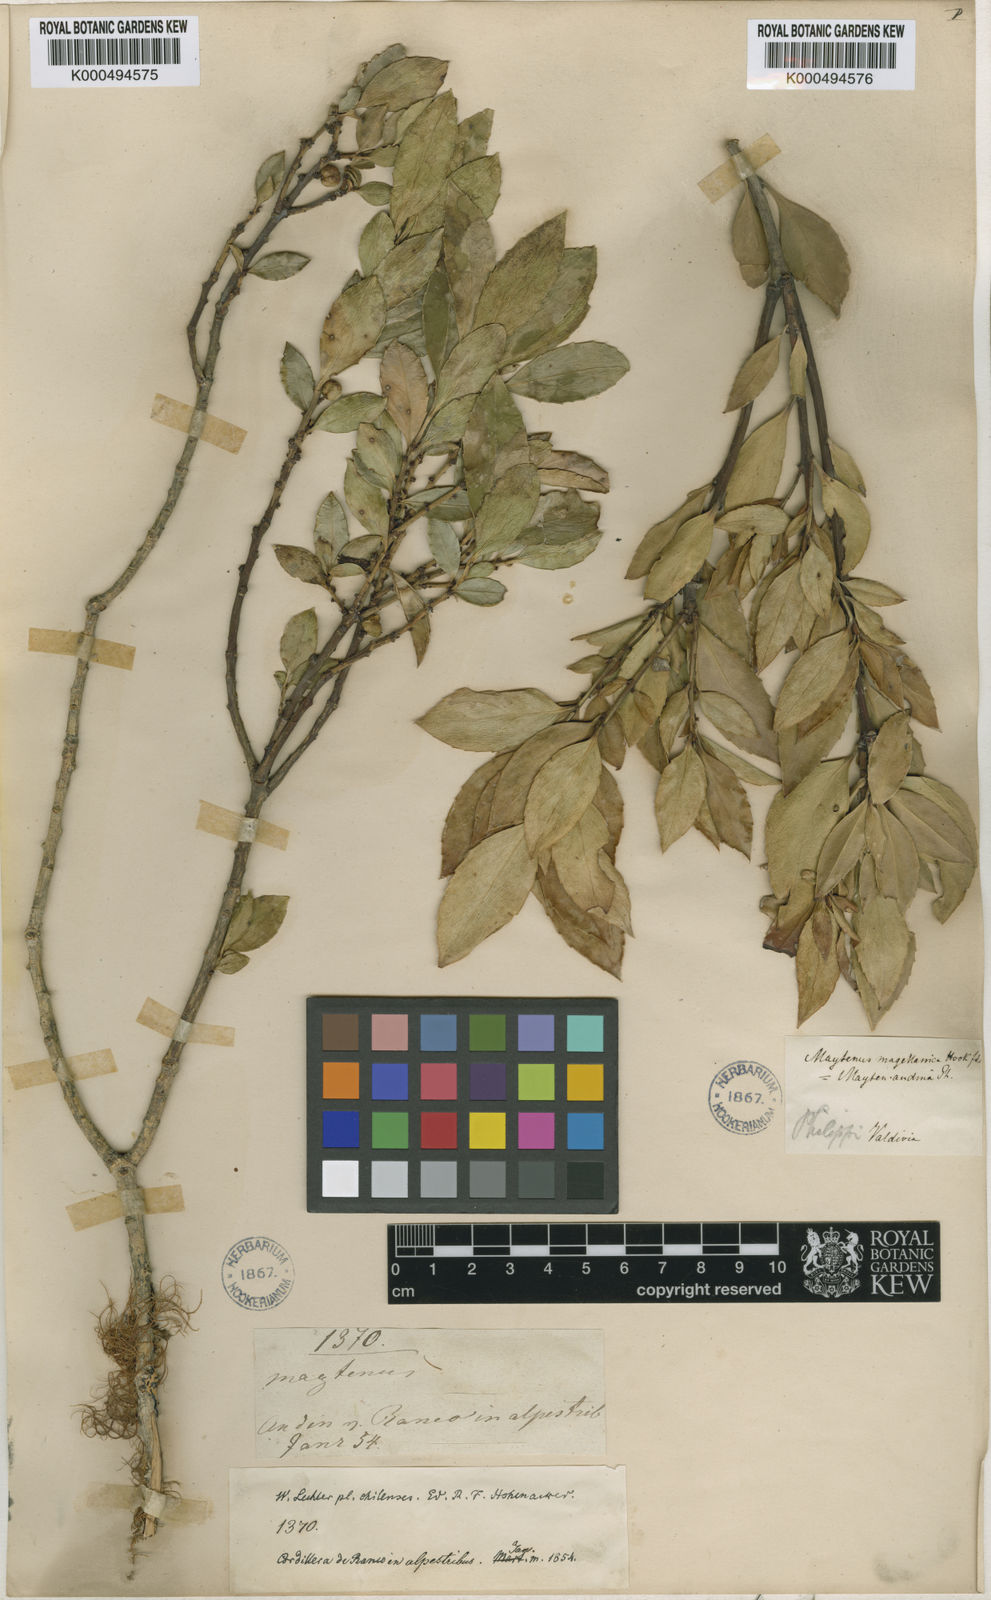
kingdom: Plantae
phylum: Tracheophyta
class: Magnoliopsida
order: Celastrales
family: Celastraceae
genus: Maytenus
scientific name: Maytenus magellanica
